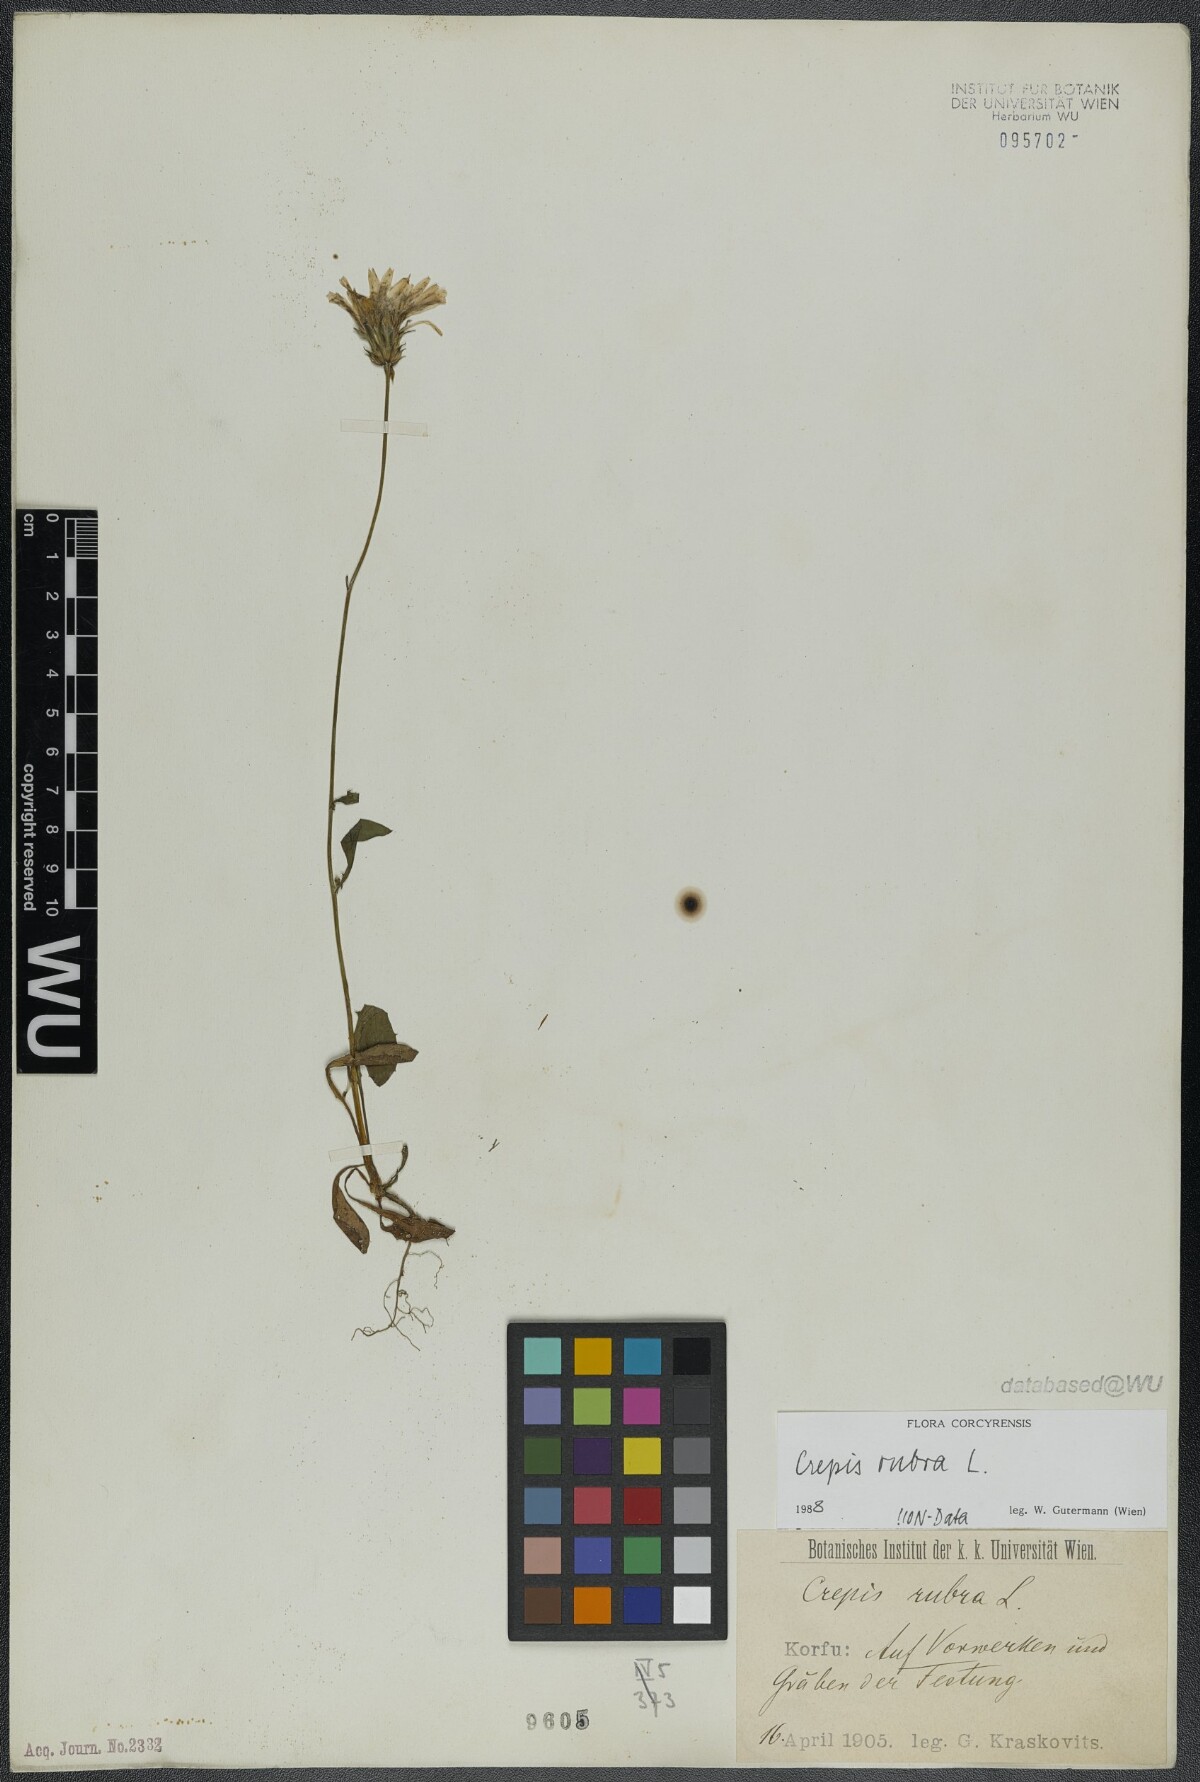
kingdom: Plantae
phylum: Tracheophyta
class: Magnoliopsida
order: Asterales
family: Asteraceae
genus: Crepis
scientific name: Crepis rubra
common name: Pink hawk's-beard
